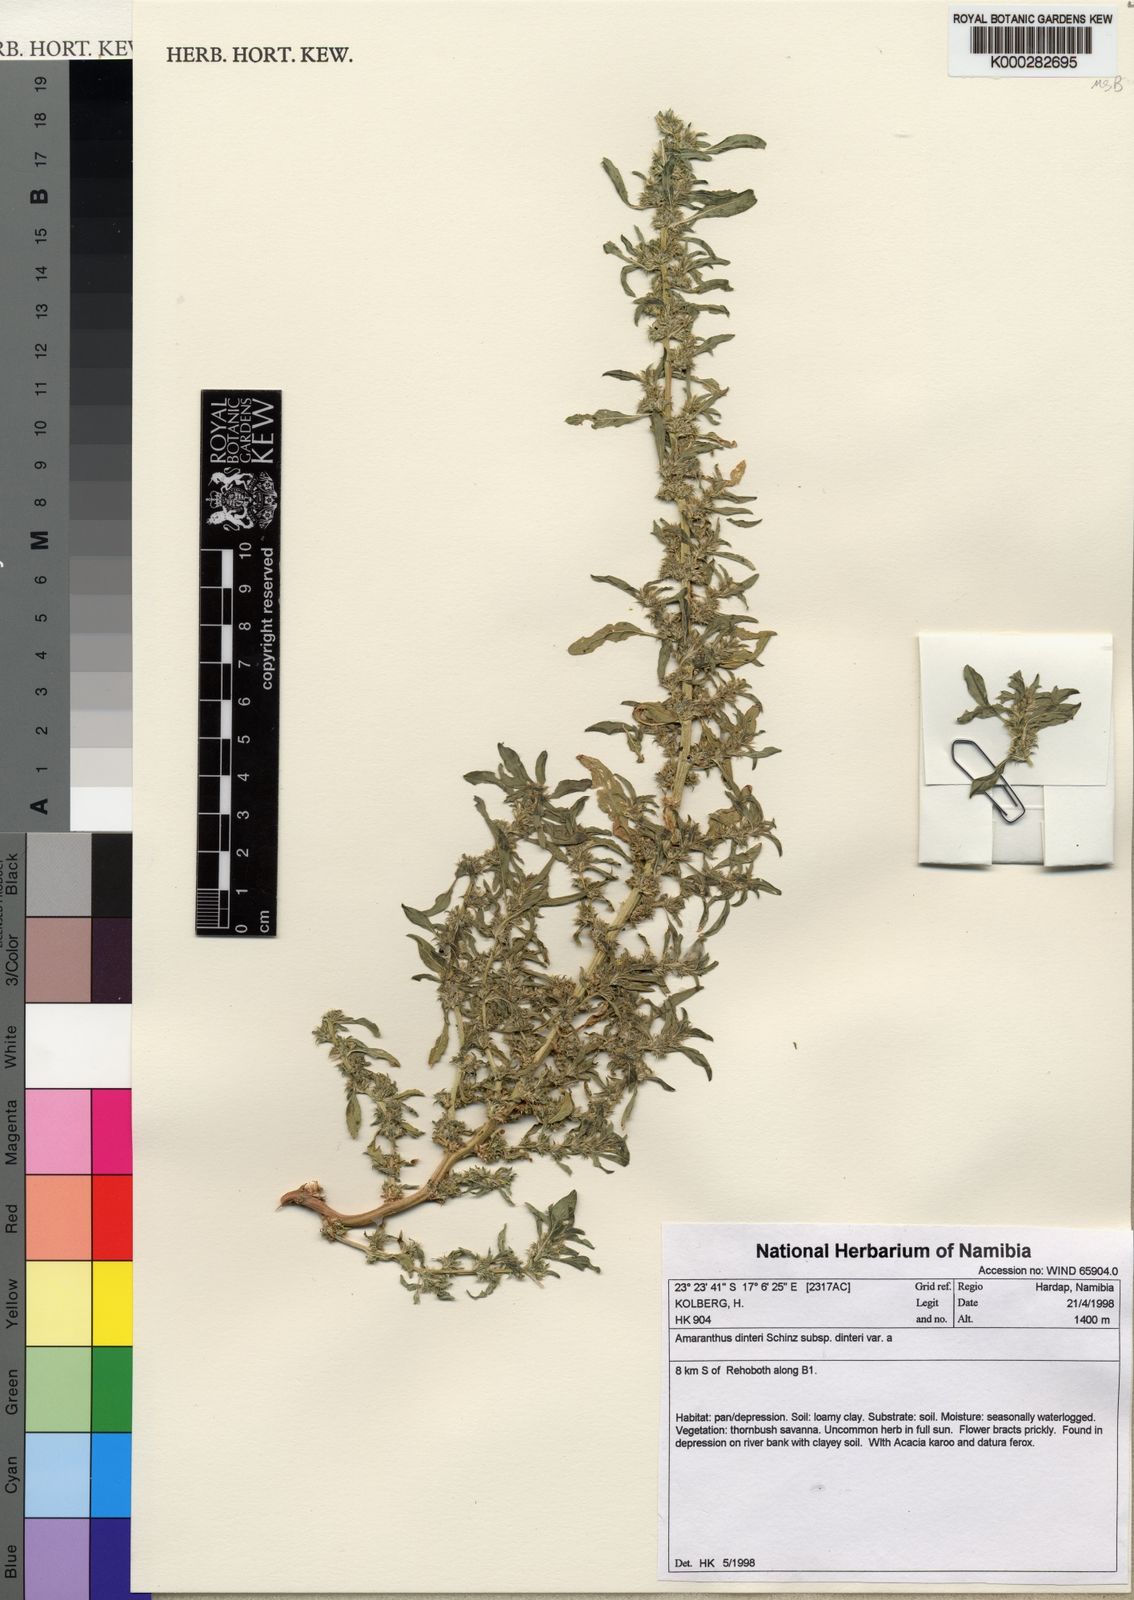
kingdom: Plantae
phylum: Tracheophyta
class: Magnoliopsida
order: Caryophyllales
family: Amaranthaceae
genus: Amaranthus
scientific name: Amaranthus dinteri
